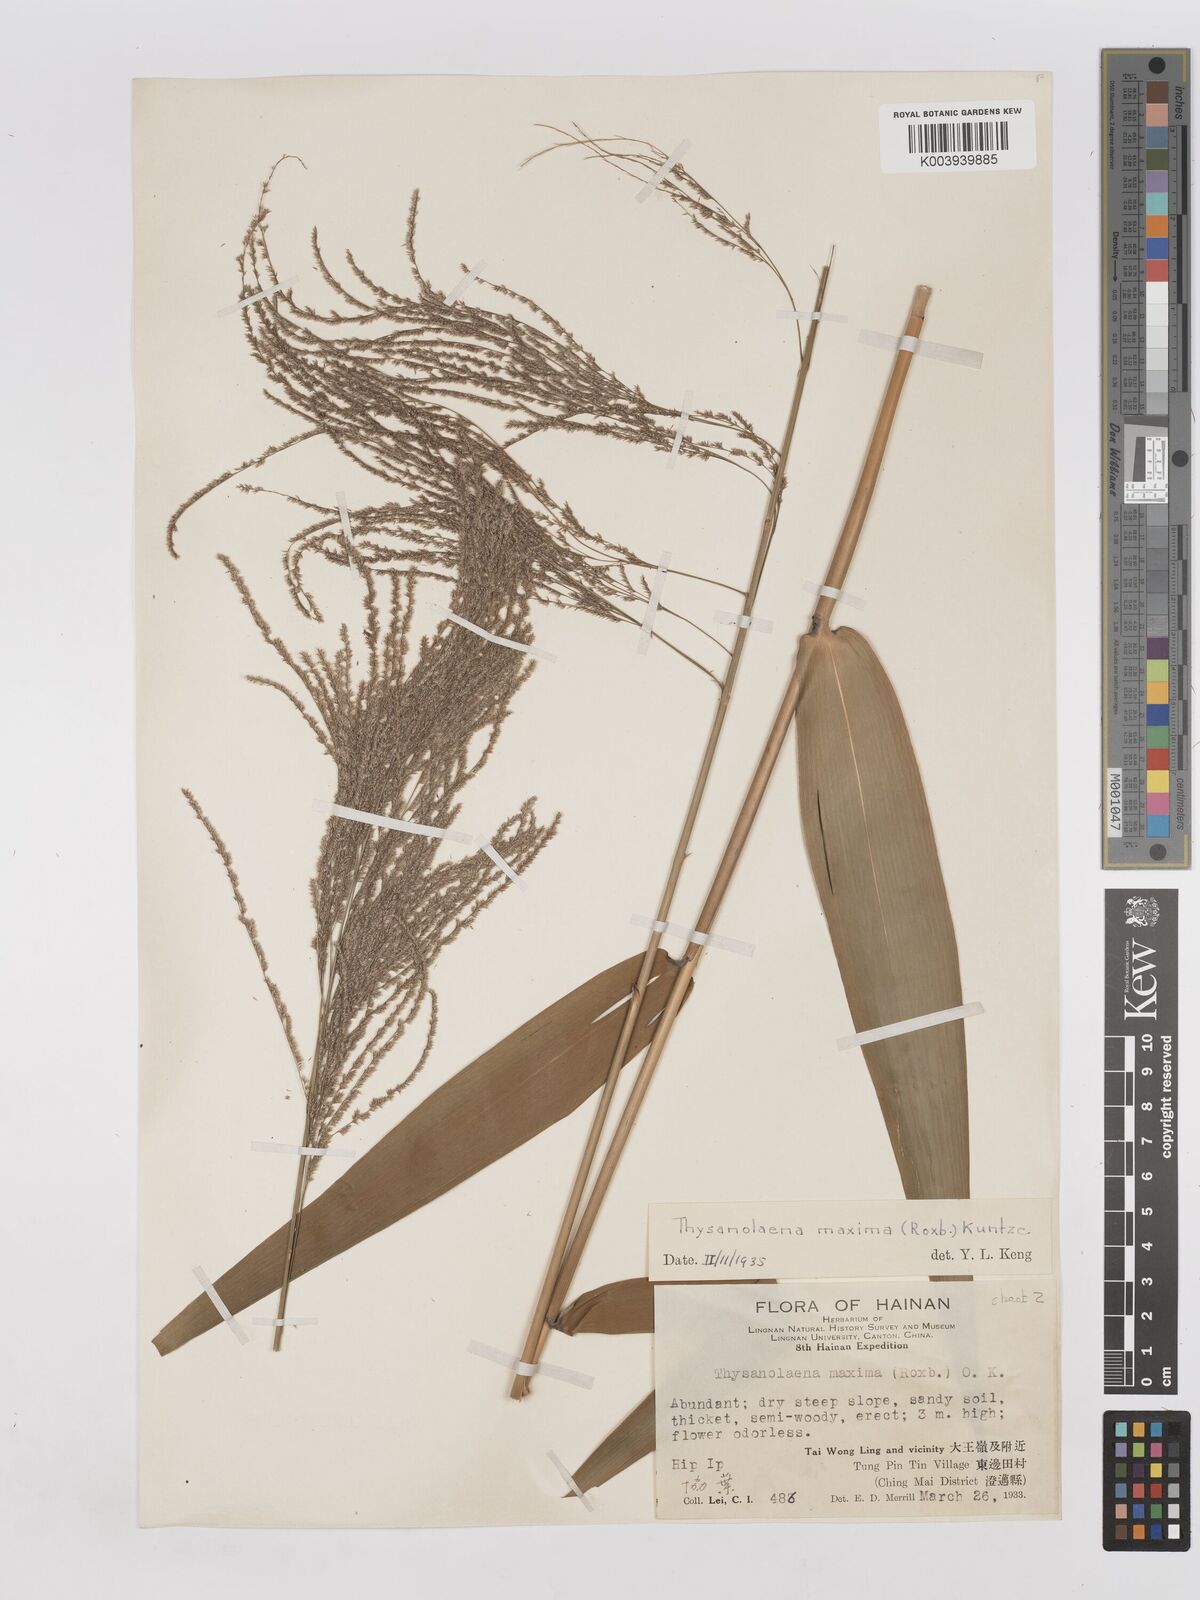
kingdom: Plantae
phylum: Tracheophyta
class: Liliopsida
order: Poales
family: Poaceae
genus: Thysanolaena
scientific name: Thysanolaena latifolia
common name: Tiger grass
